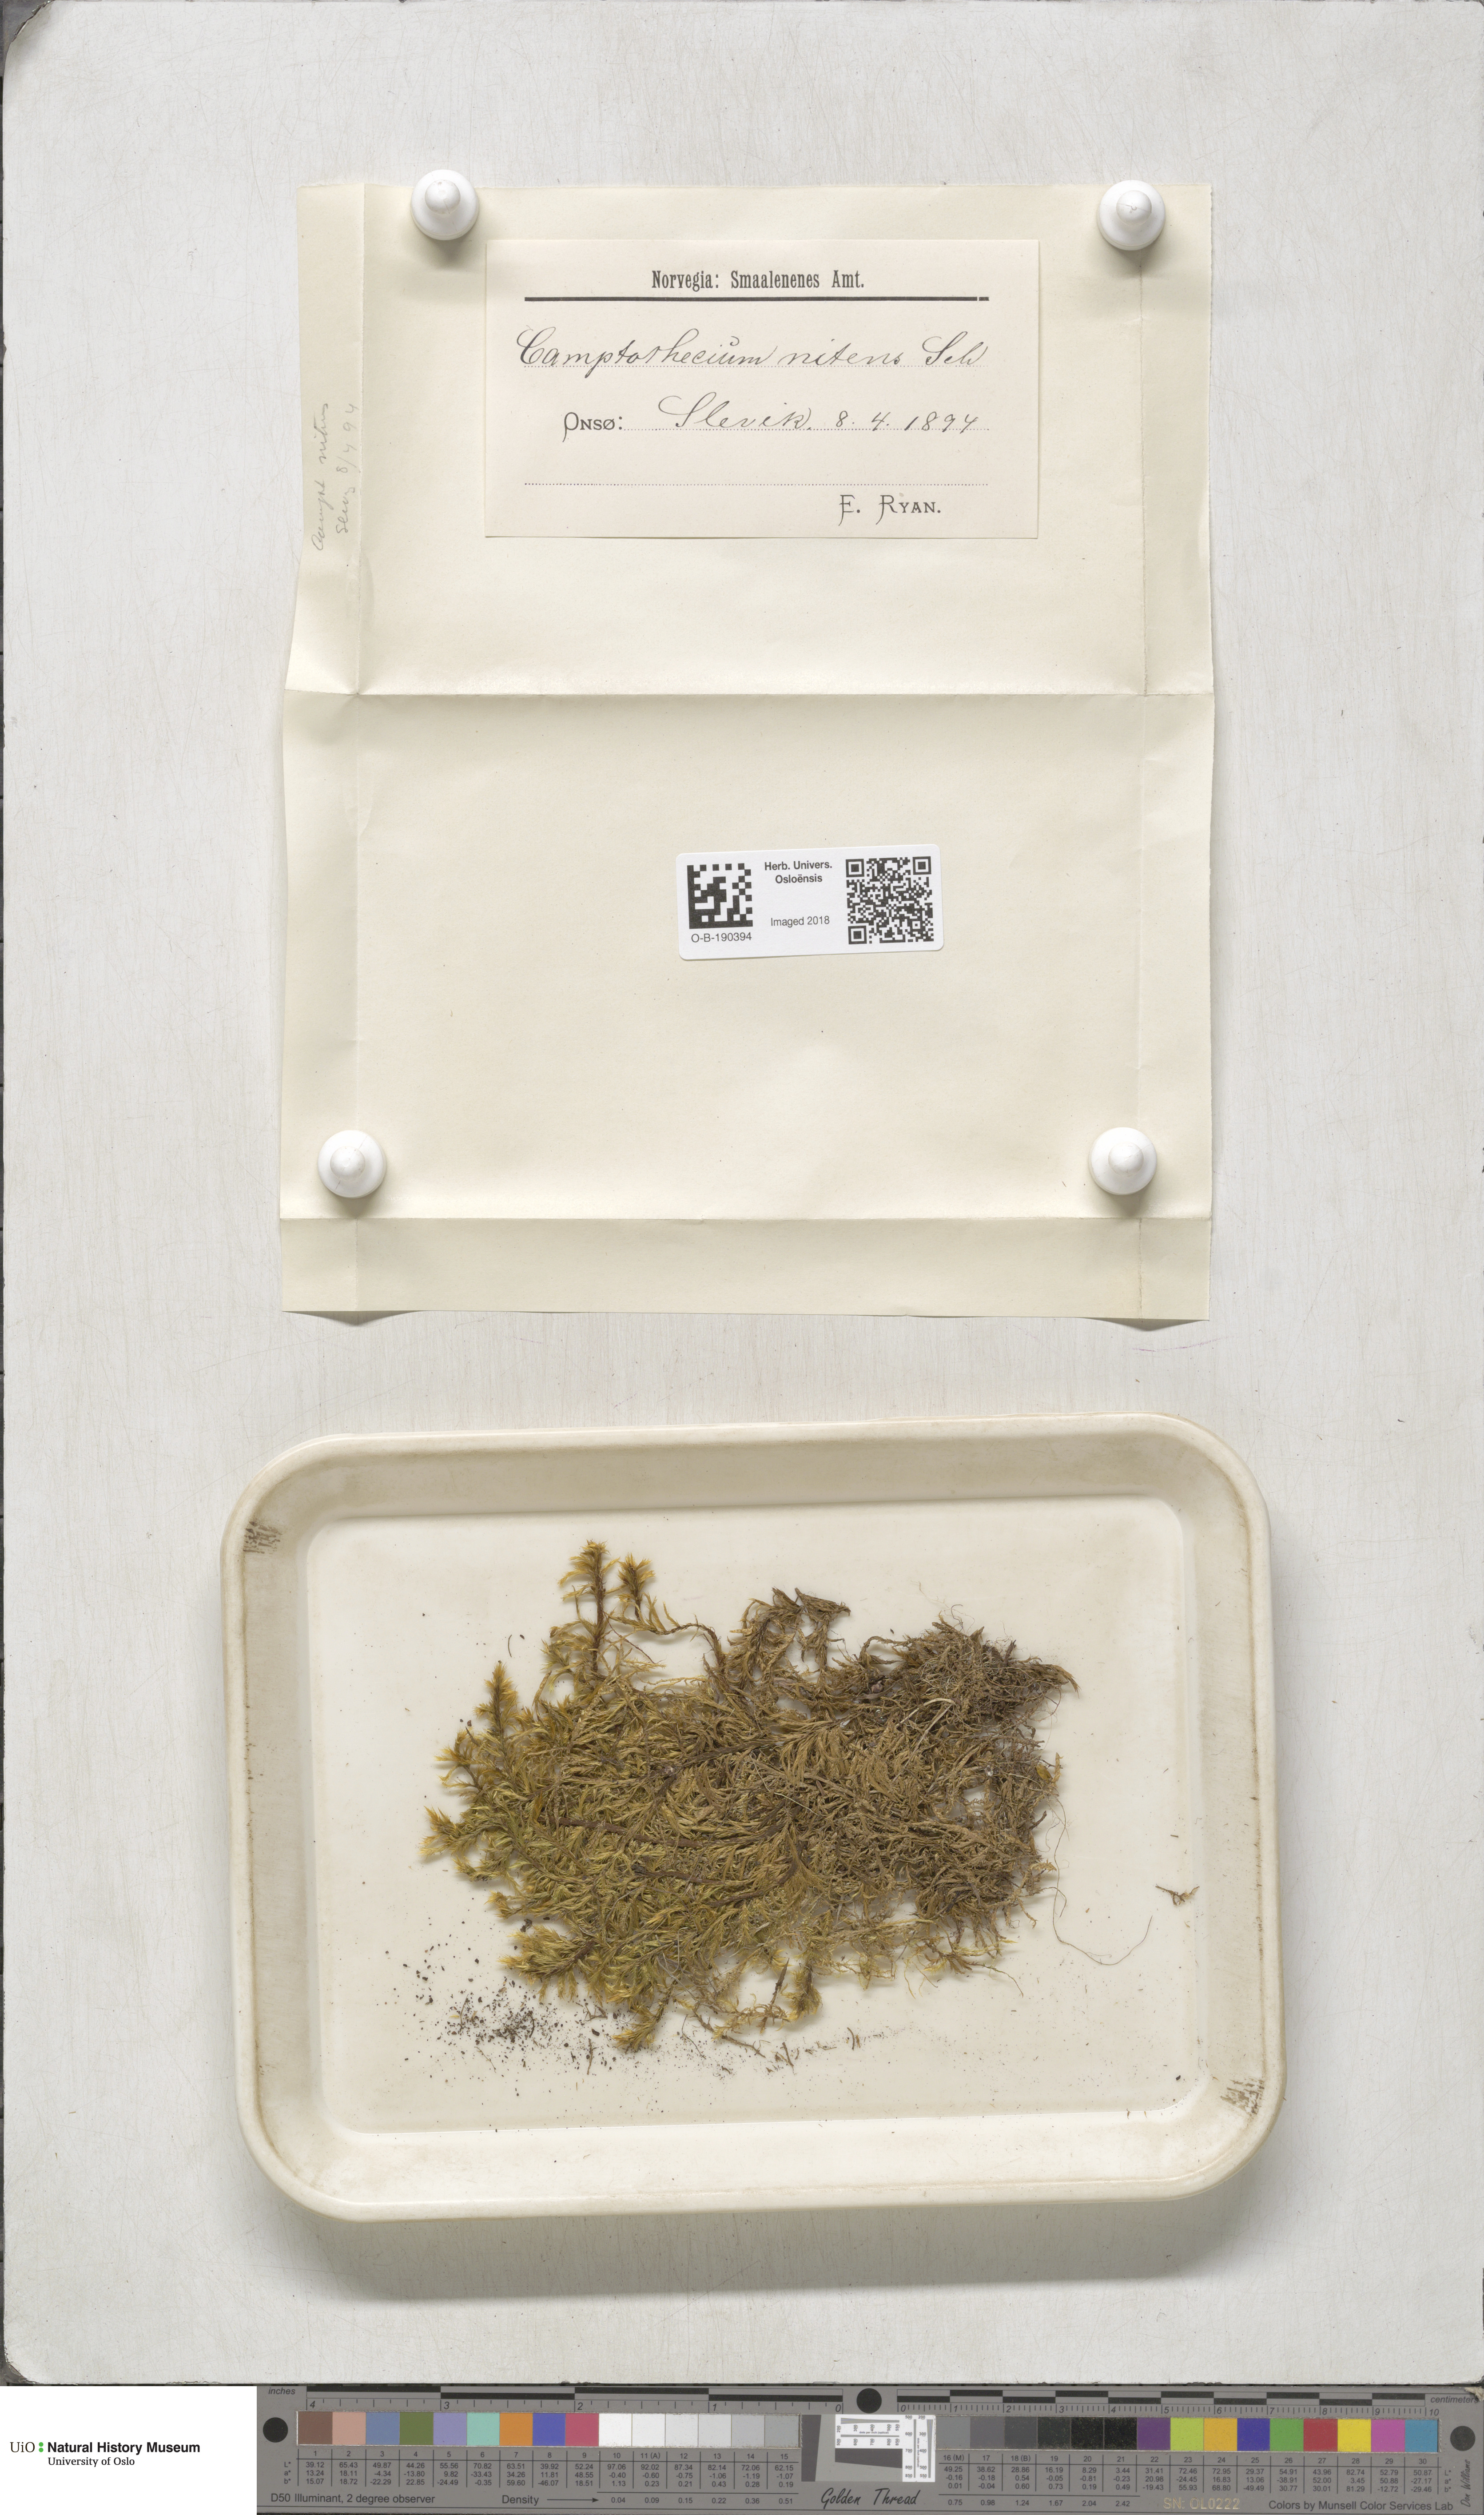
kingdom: Plantae
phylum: Bryophyta
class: Bryopsida
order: Hypnales
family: Amblystegiaceae
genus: Tomentypnum
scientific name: Tomentypnum nitens
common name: Golden fuzzy fen moss
